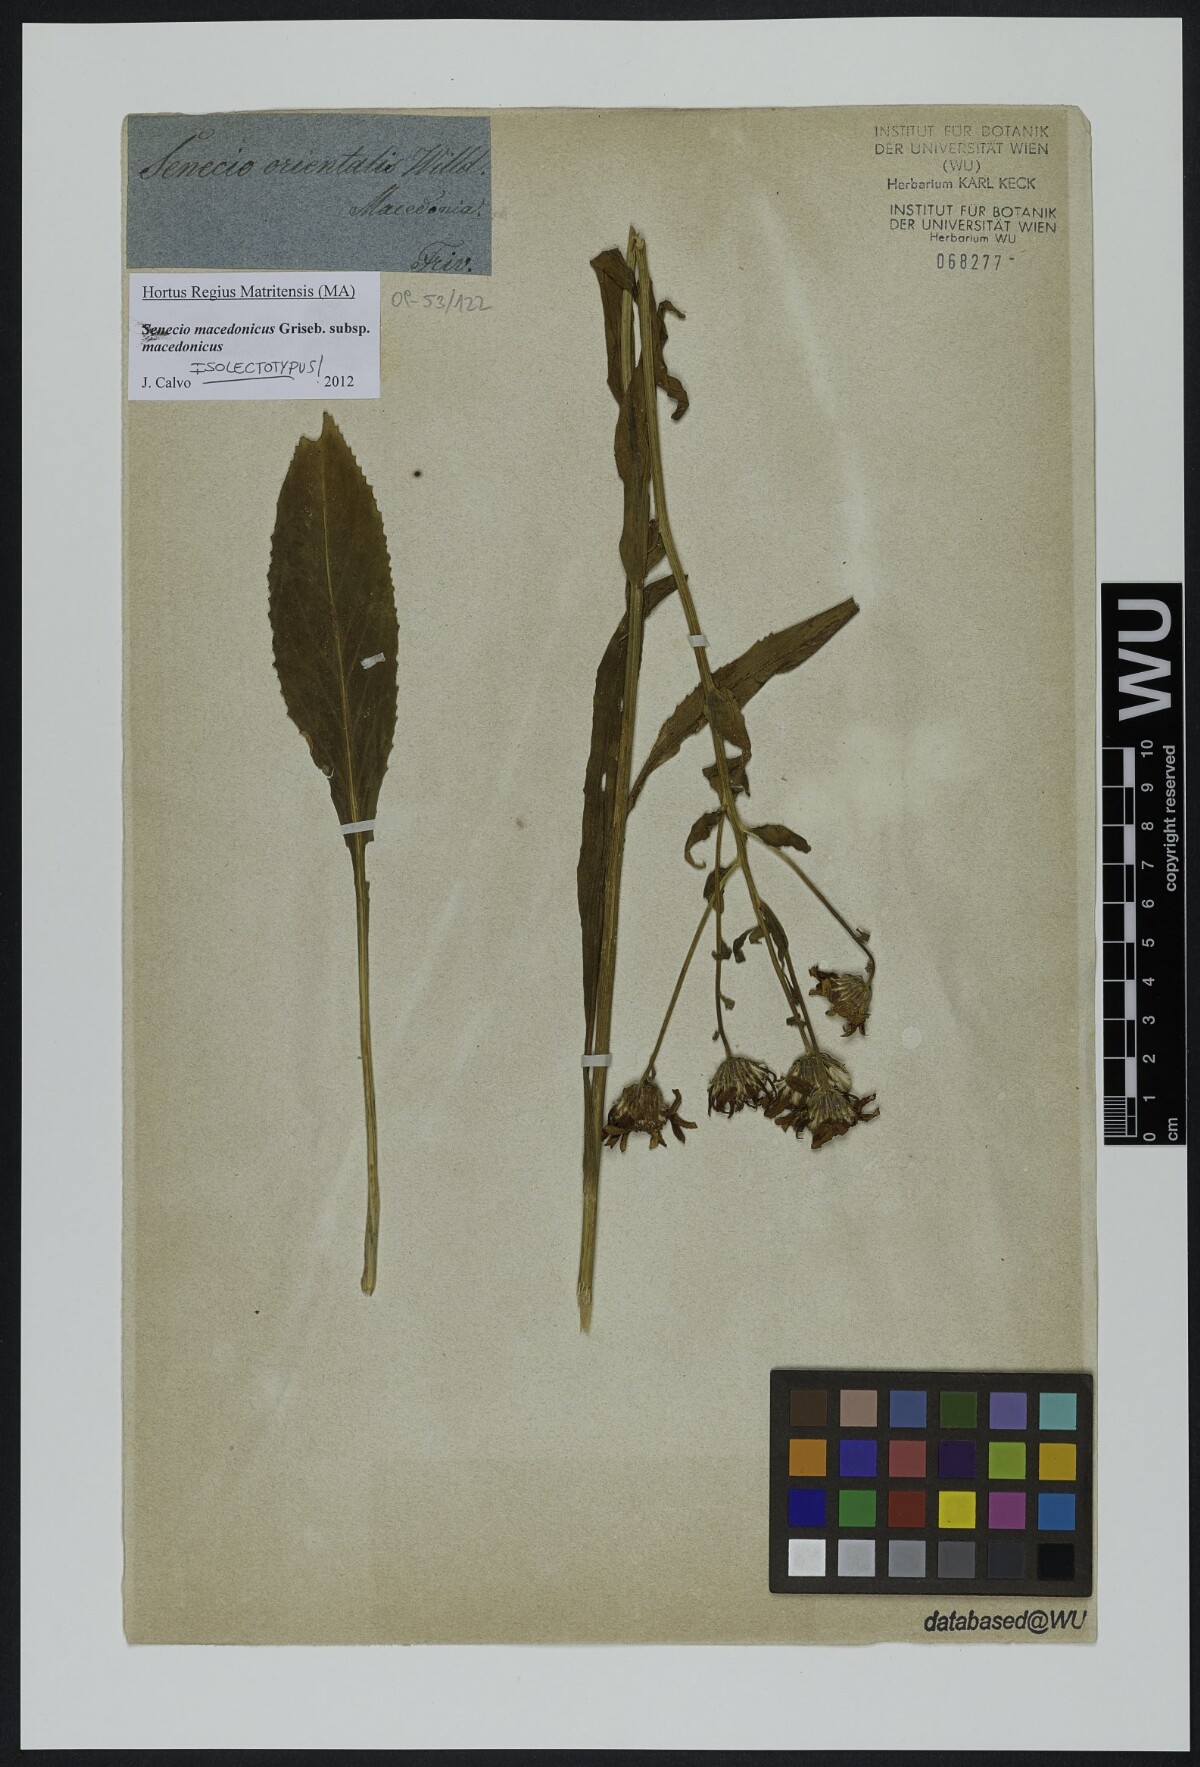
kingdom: Plantae
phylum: Tracheophyta
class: Magnoliopsida
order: Asterales
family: Asteraceae
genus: Senecio
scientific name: Senecio macedonicus
